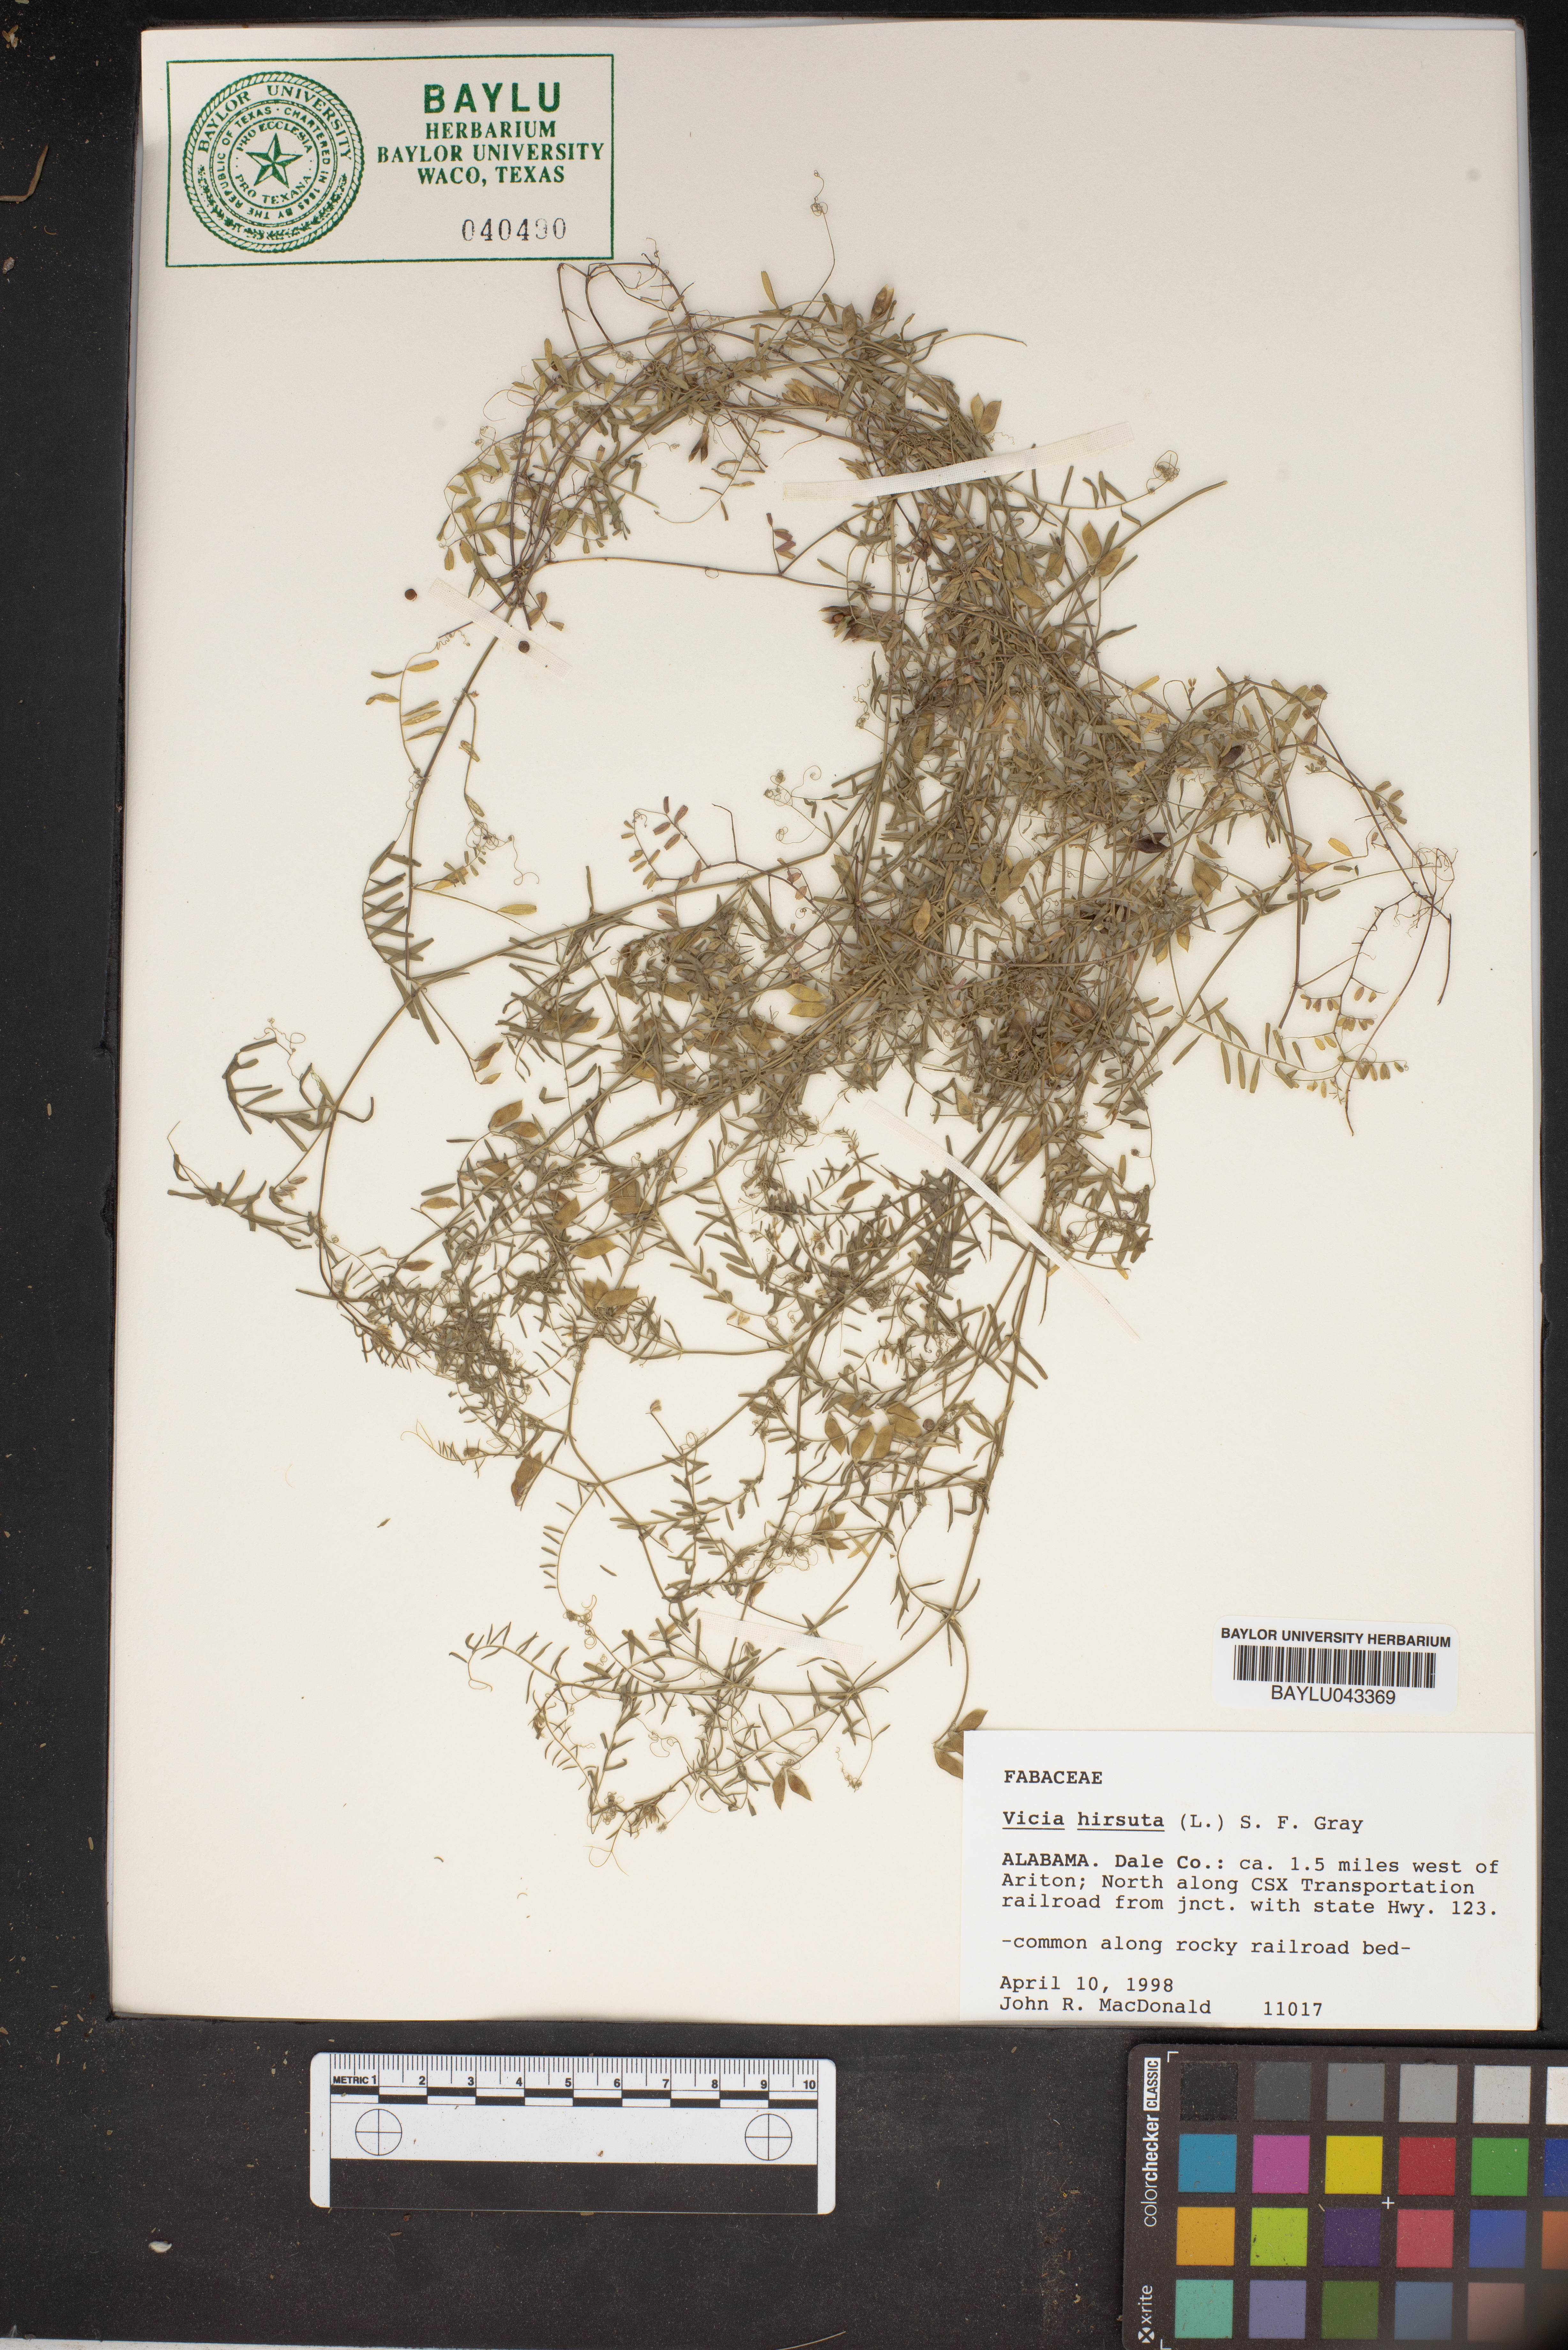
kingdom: Plantae
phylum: Tracheophyta
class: Magnoliopsida
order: Fabales
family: Fabaceae
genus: Vicia
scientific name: Vicia hirsuta
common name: Tiny vetch
